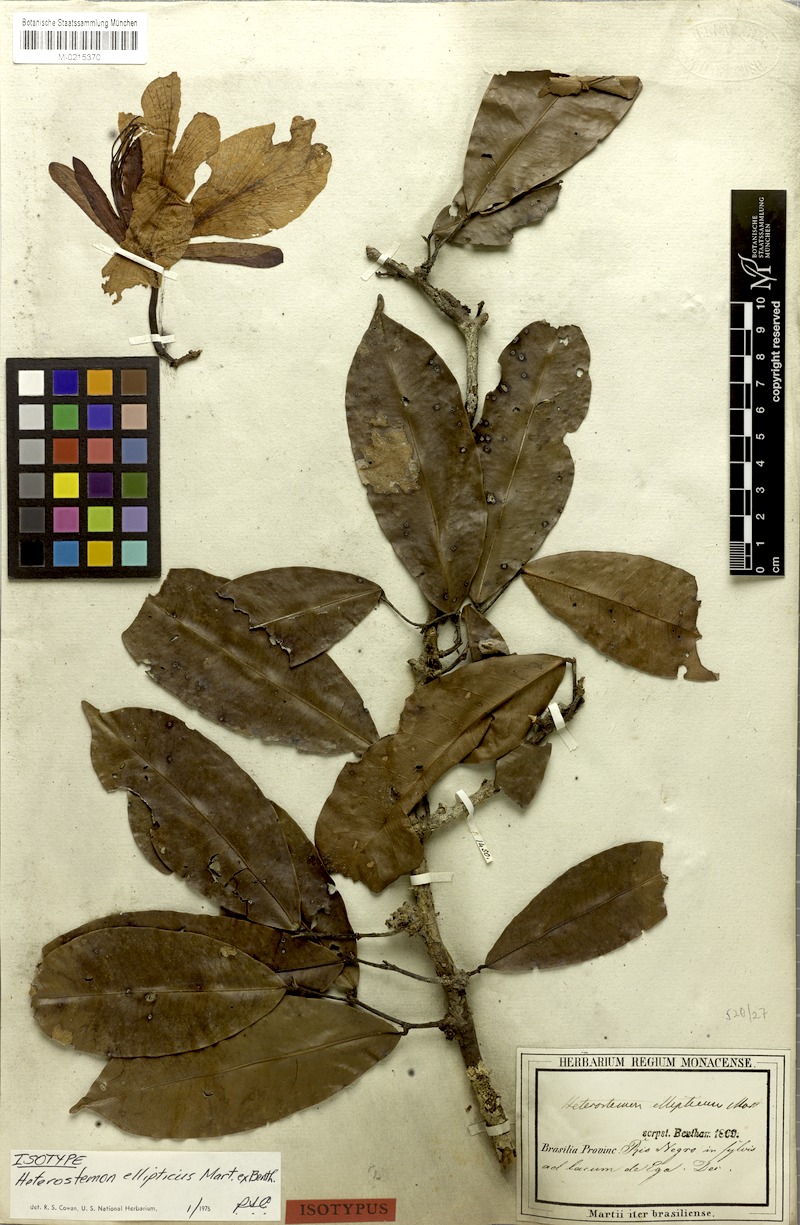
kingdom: Plantae
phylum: Tracheophyta
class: Magnoliopsida
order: Fabales
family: Fabaceae
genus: Heterostemon
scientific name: Heterostemon ellipticus
